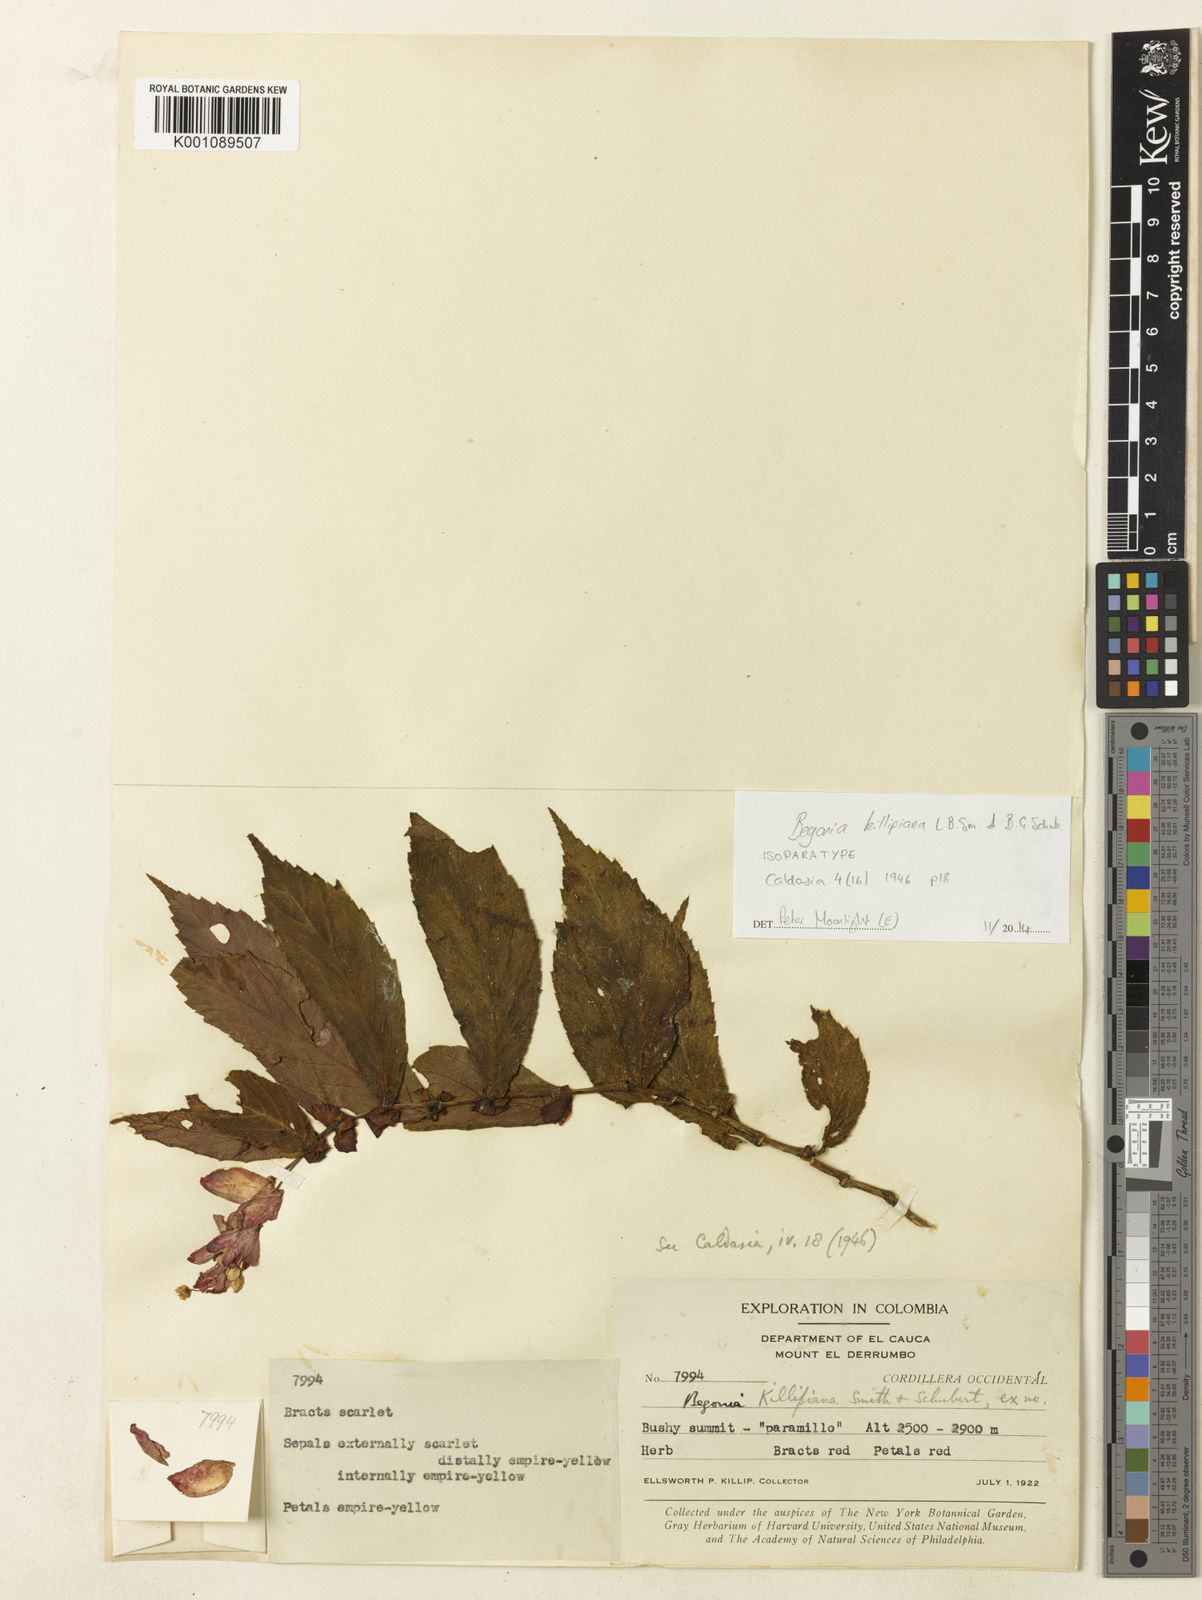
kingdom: Plantae
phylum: Tracheophyta
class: Magnoliopsida
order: Cucurbitales
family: Begoniaceae
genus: Begonia
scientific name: Begonia killipiana
